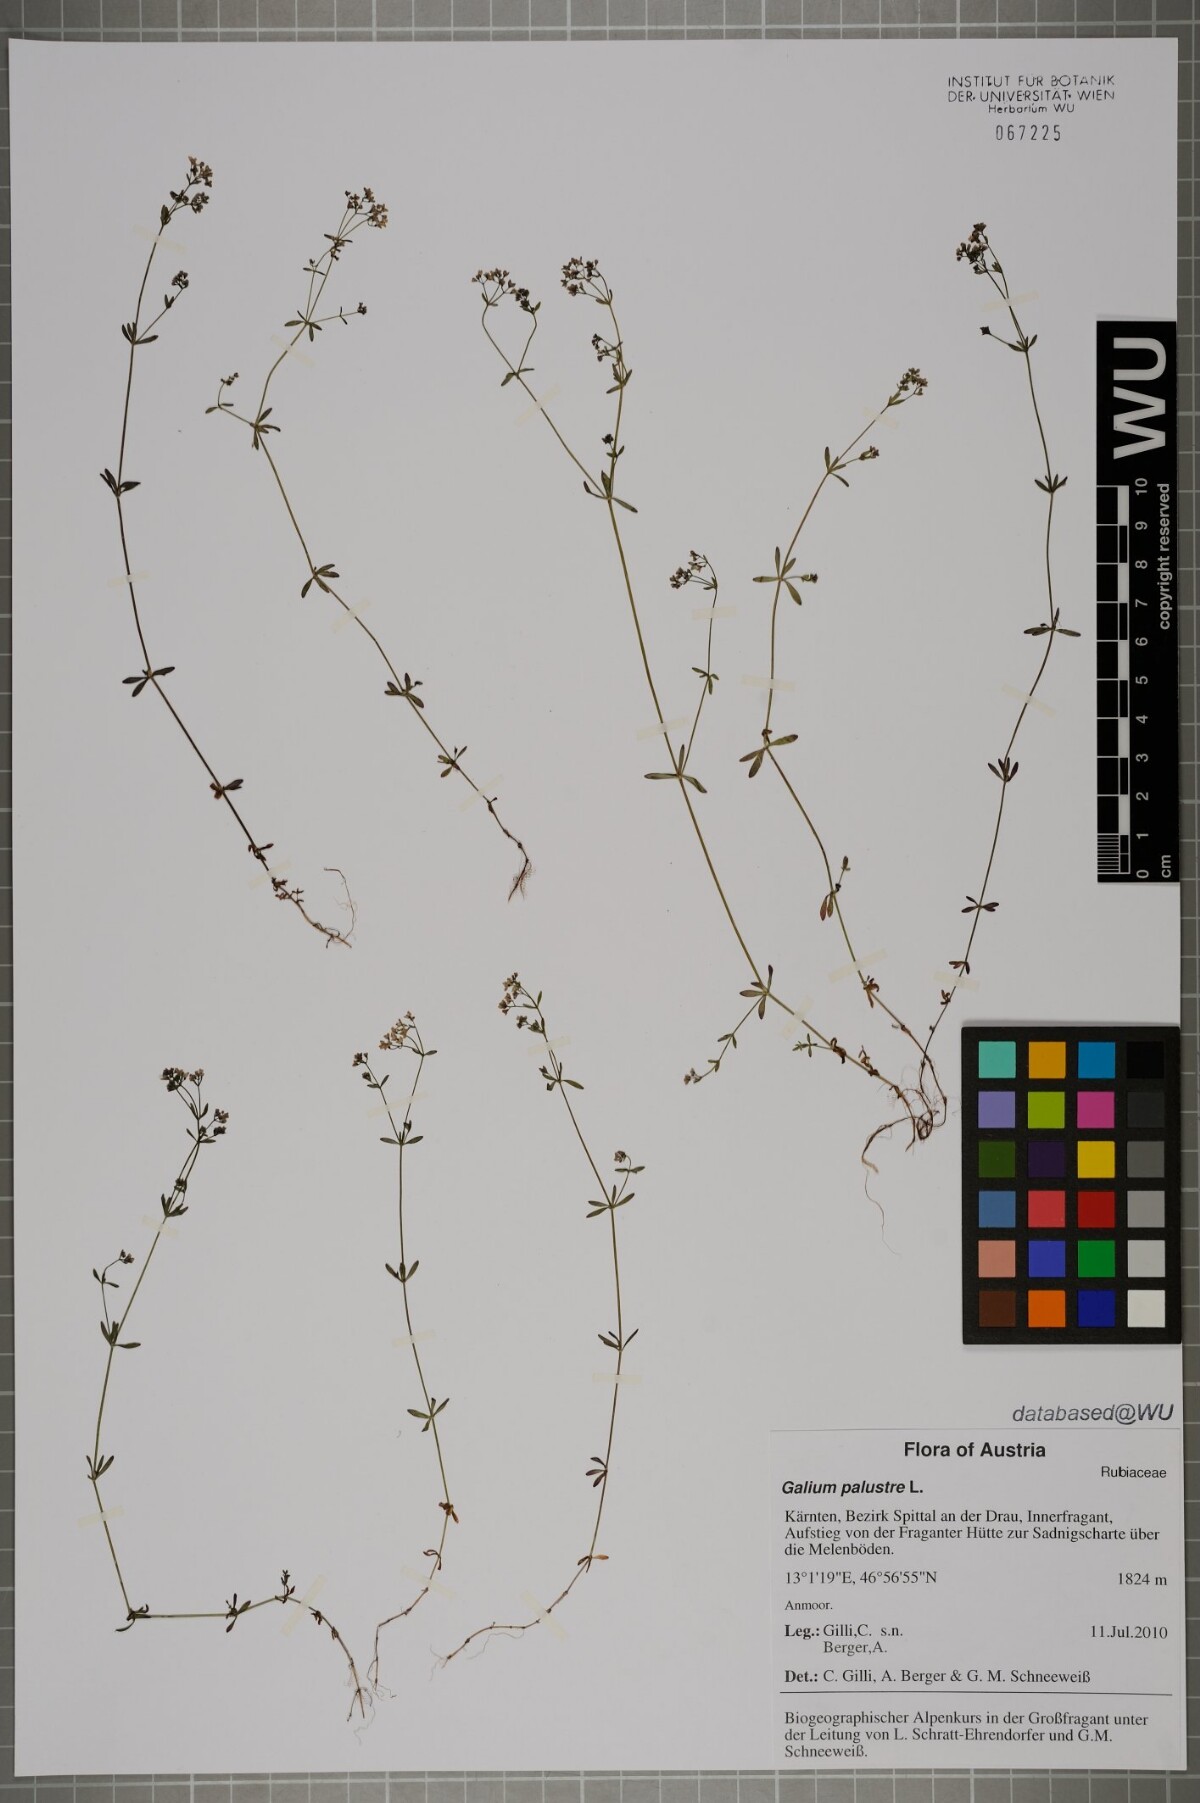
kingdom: Plantae
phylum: Tracheophyta
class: Magnoliopsida
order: Gentianales
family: Rubiaceae
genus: Galium
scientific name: Galium palustre
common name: Common marsh-bedstraw
